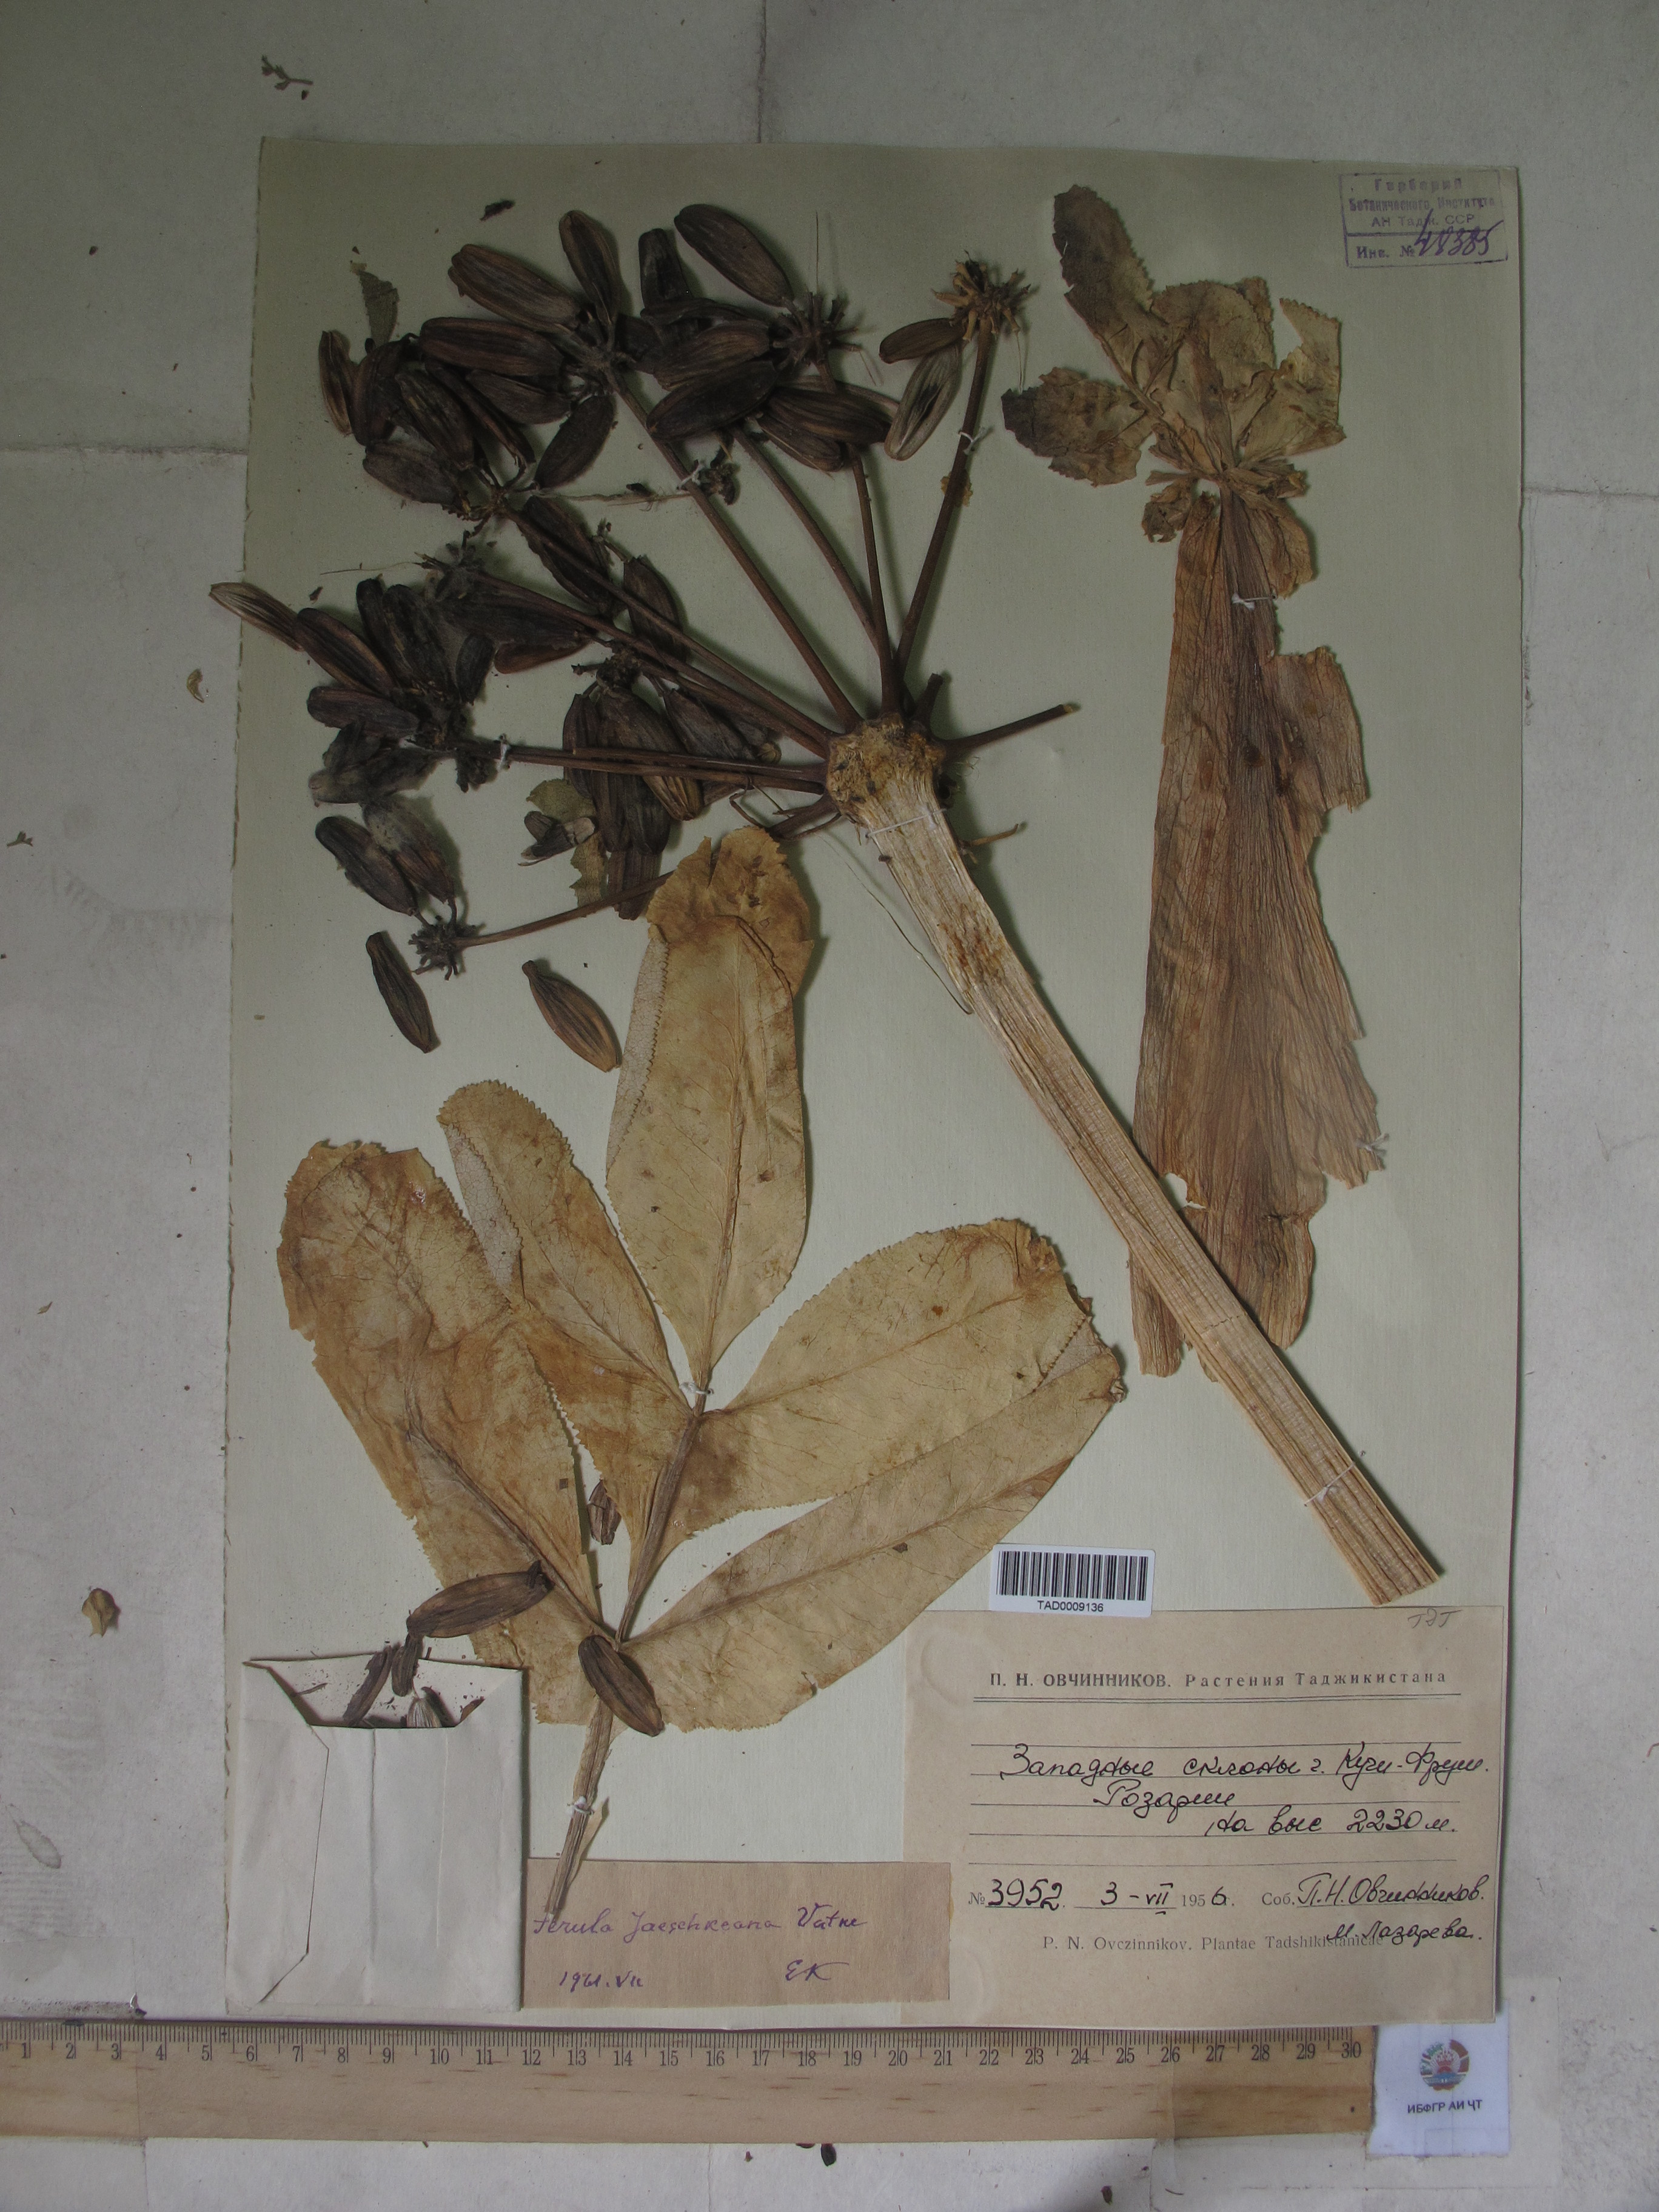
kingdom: Plantae
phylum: Tracheophyta
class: Magnoliopsida
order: Apiales
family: Apiaceae
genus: Ferula
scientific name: Ferula jaeschkeana
